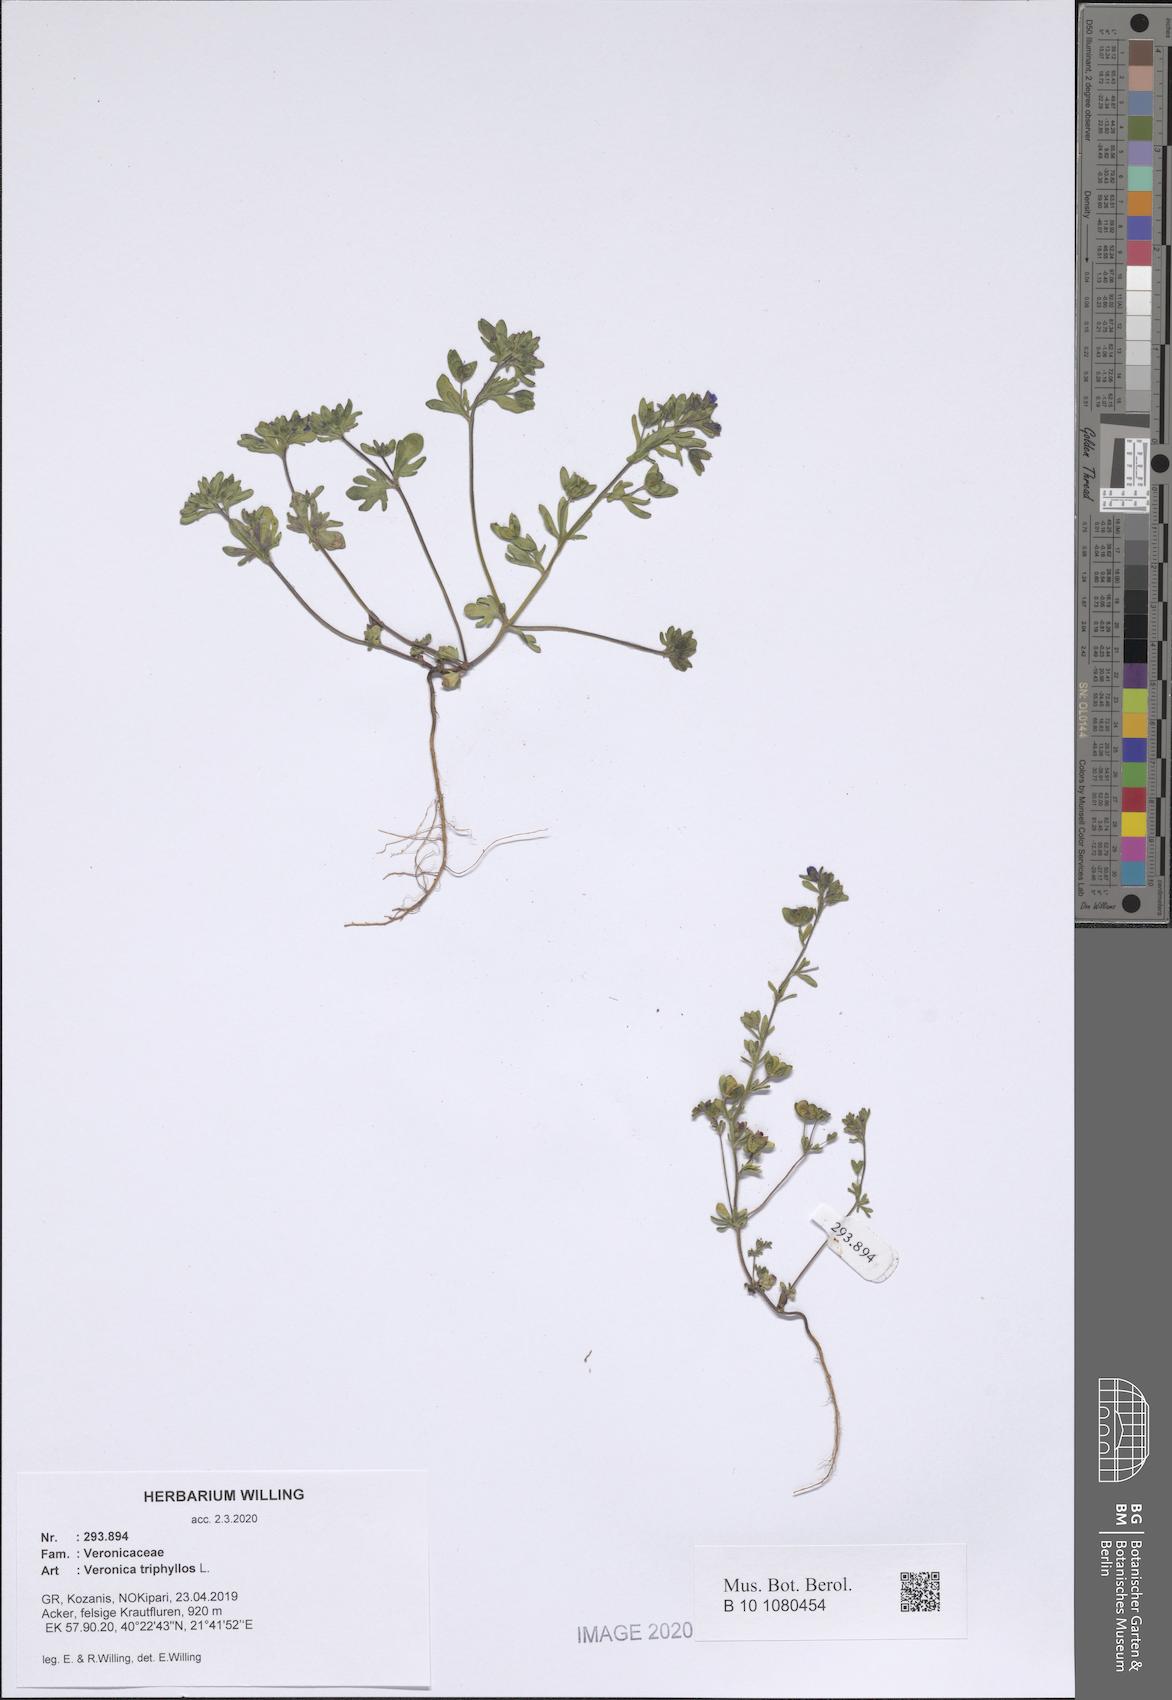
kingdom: Plantae
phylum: Tracheophyta
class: Magnoliopsida
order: Lamiales
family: Plantaginaceae
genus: Veronica
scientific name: Veronica triphyllos
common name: Fingered speedwell
